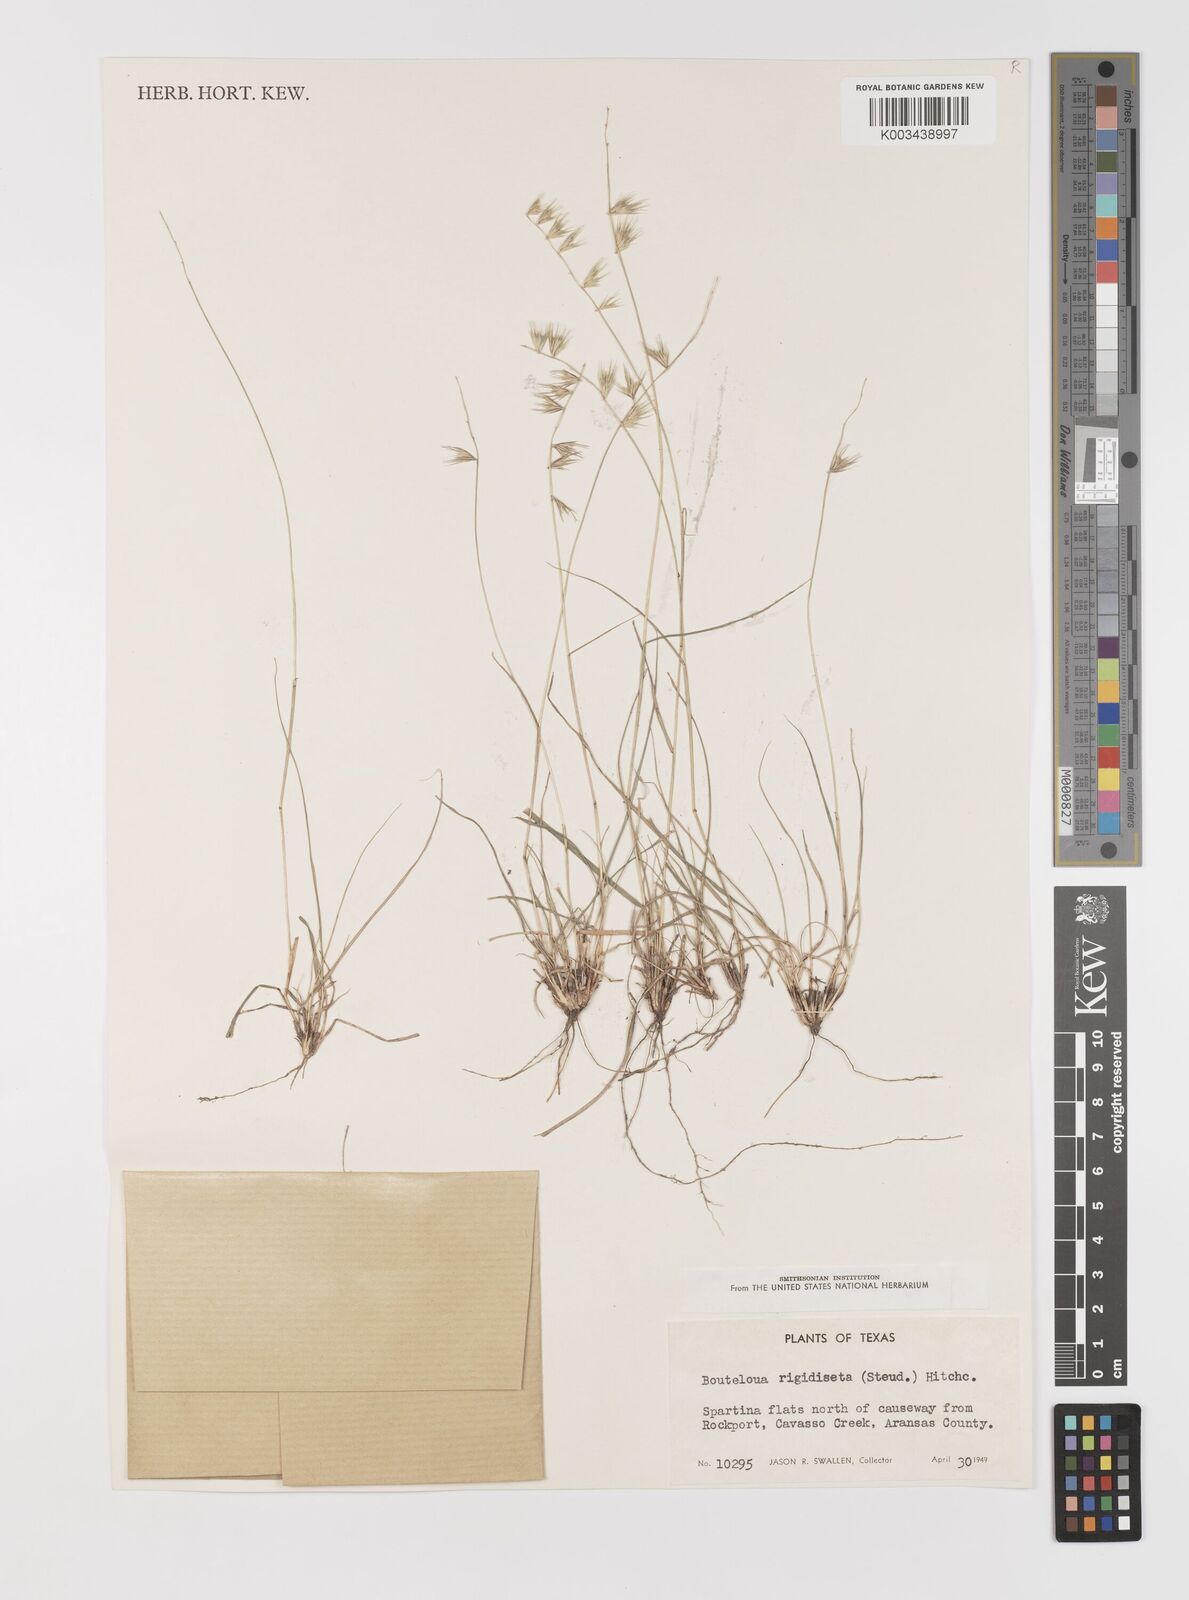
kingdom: Plantae
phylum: Tracheophyta
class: Liliopsida
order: Poales
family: Poaceae
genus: Bouteloua
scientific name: Bouteloua rigidiseta
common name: Texas grama
